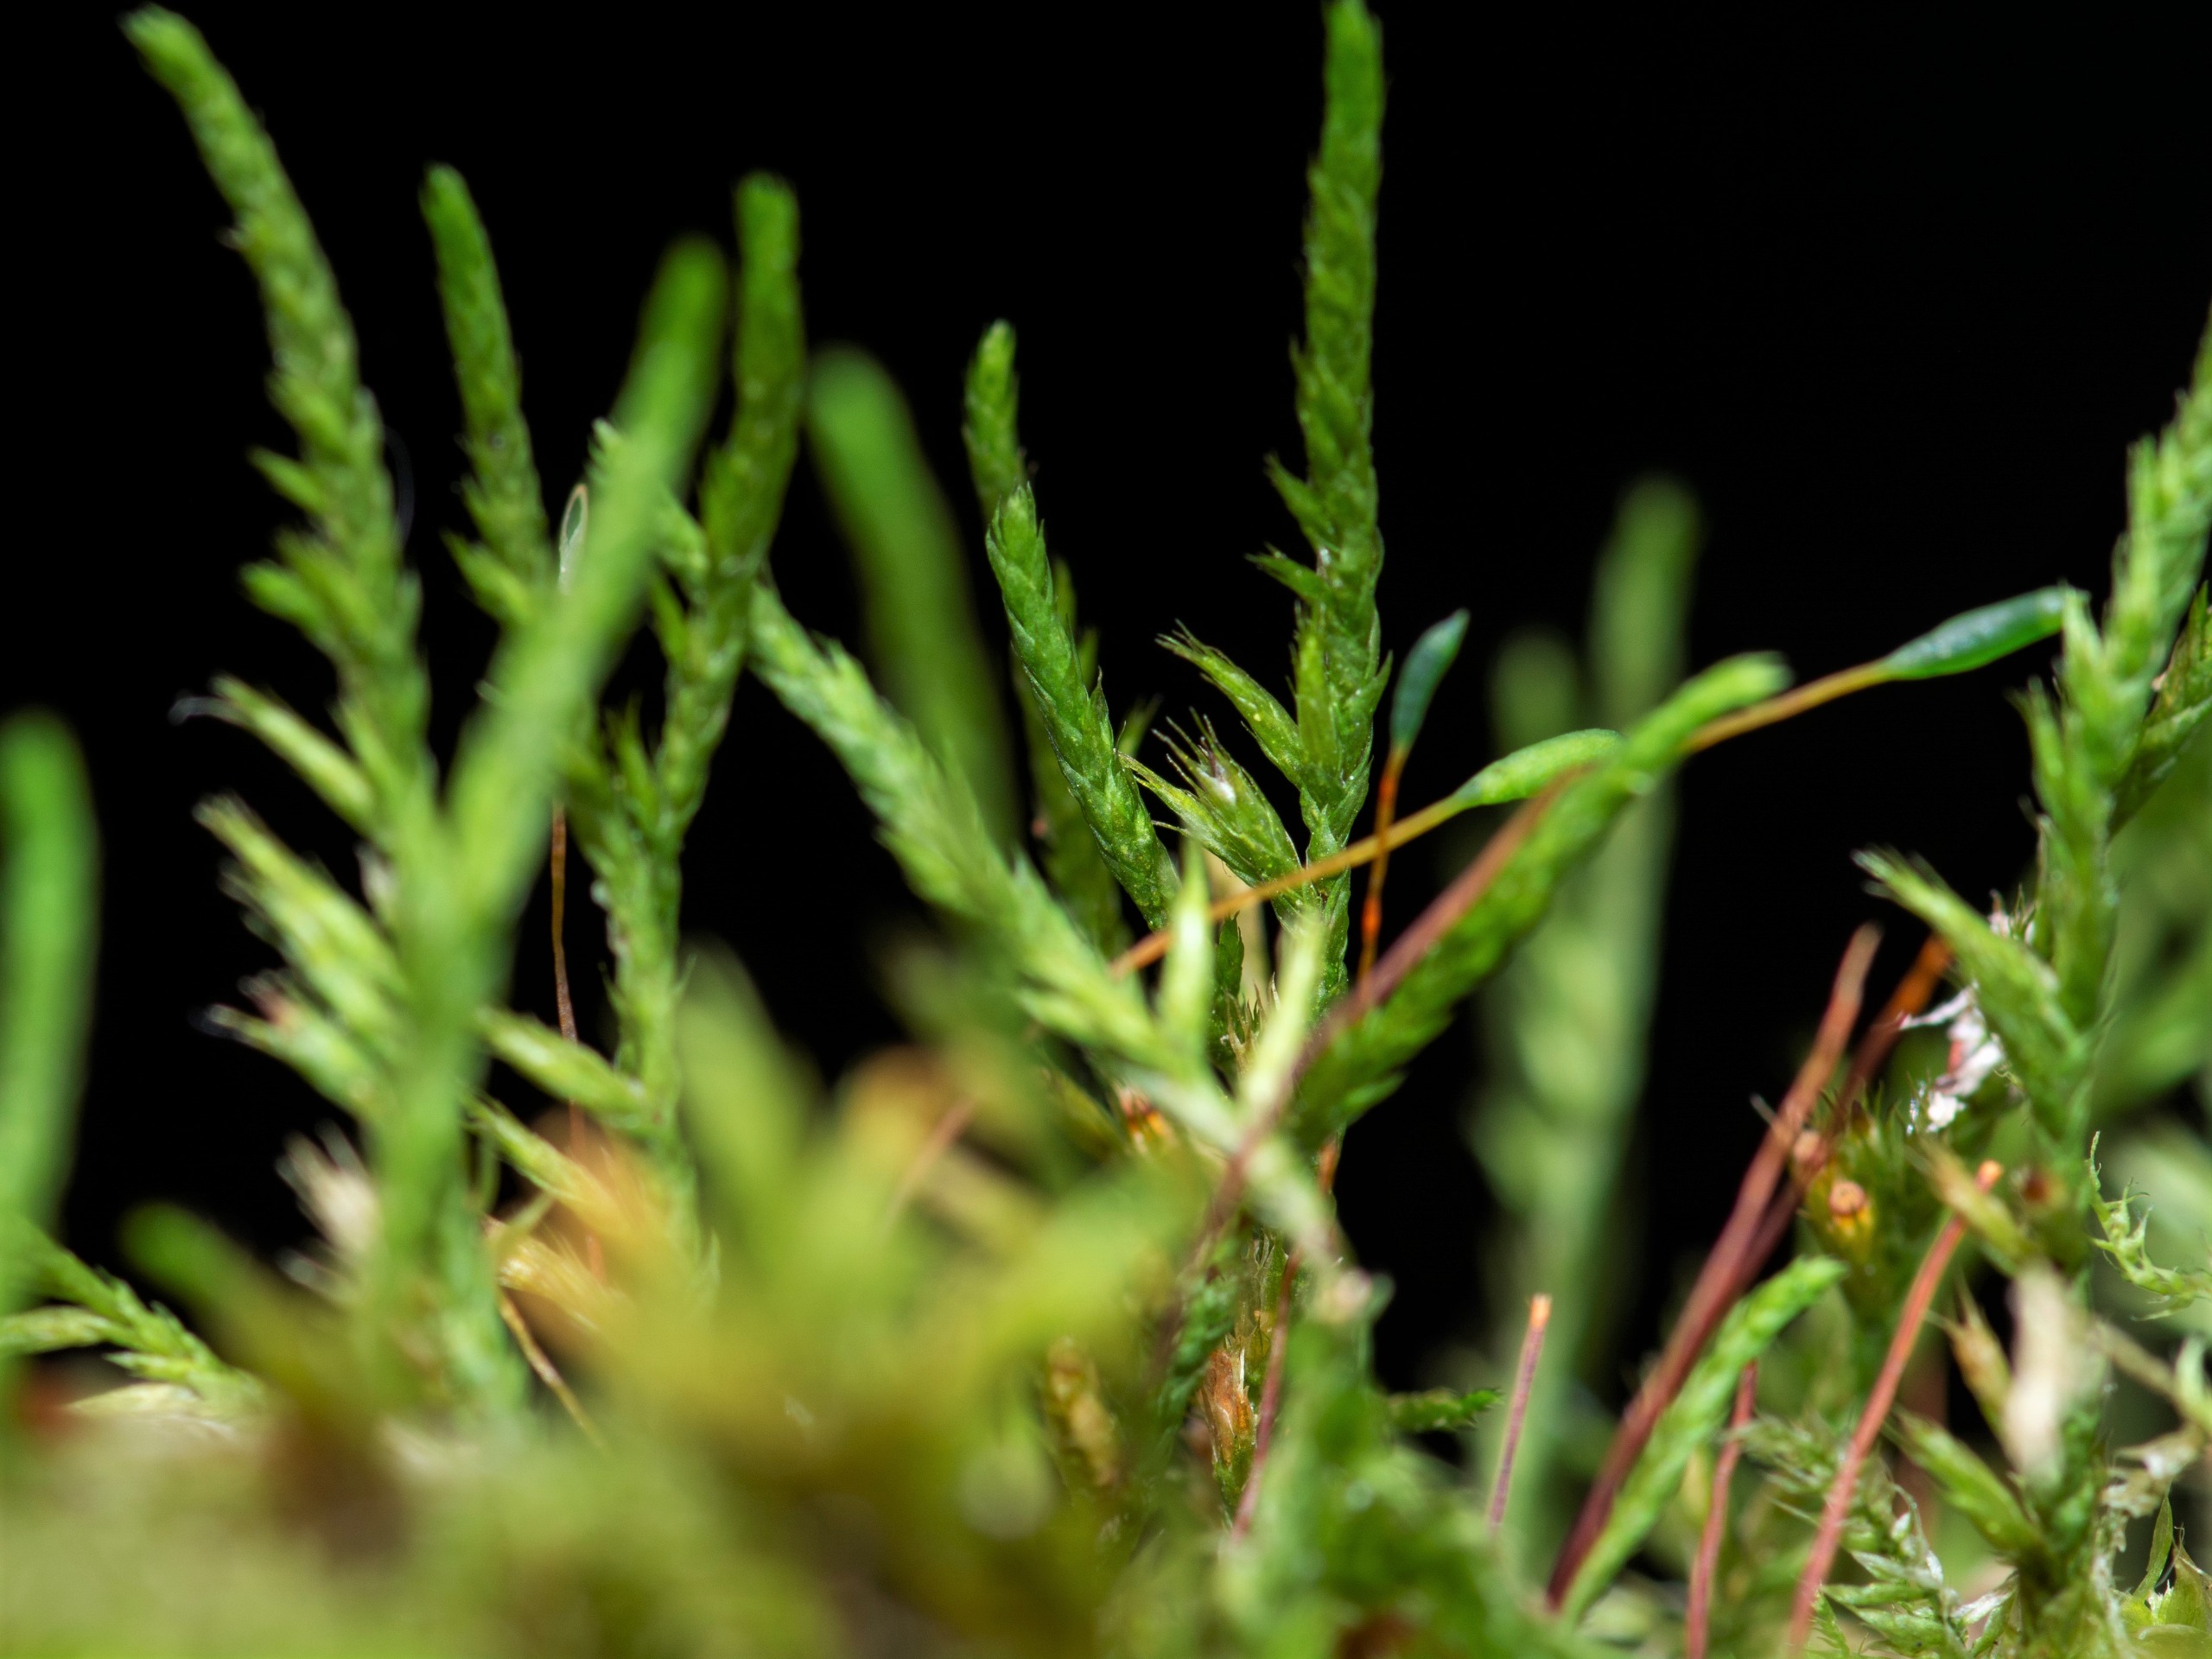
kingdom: Plantae
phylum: Bryophyta
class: Bryopsida
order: Hypnales
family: Cryphaeaceae
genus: Cryphaea
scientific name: Cryphaea heteromalla
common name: Bark-dækmos
